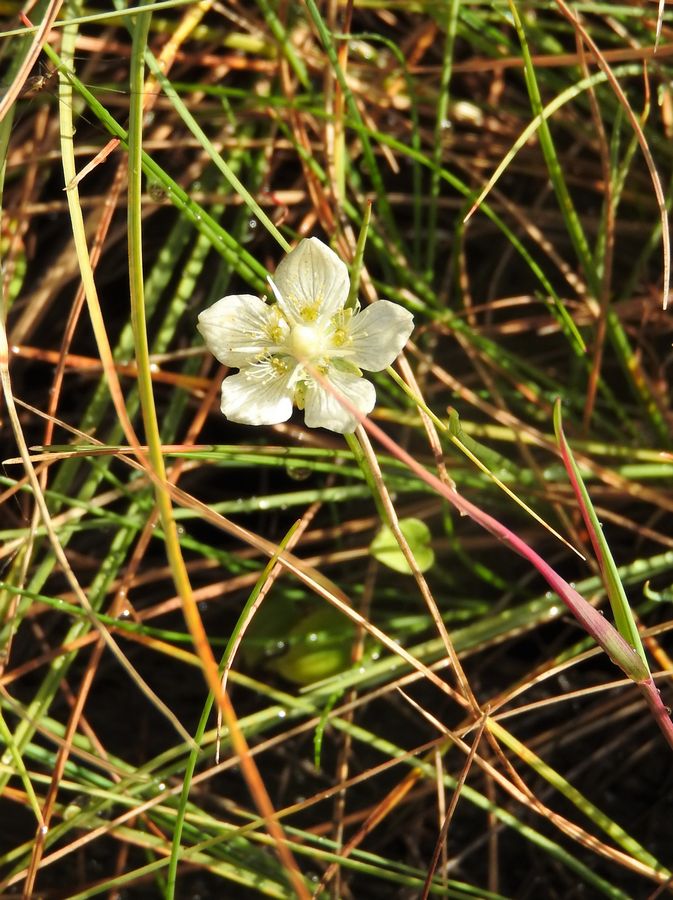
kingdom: Plantae
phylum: Tracheophyta
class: Magnoliopsida
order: Celastrales
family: Parnassiaceae
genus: Parnassia
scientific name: Parnassia palustris
